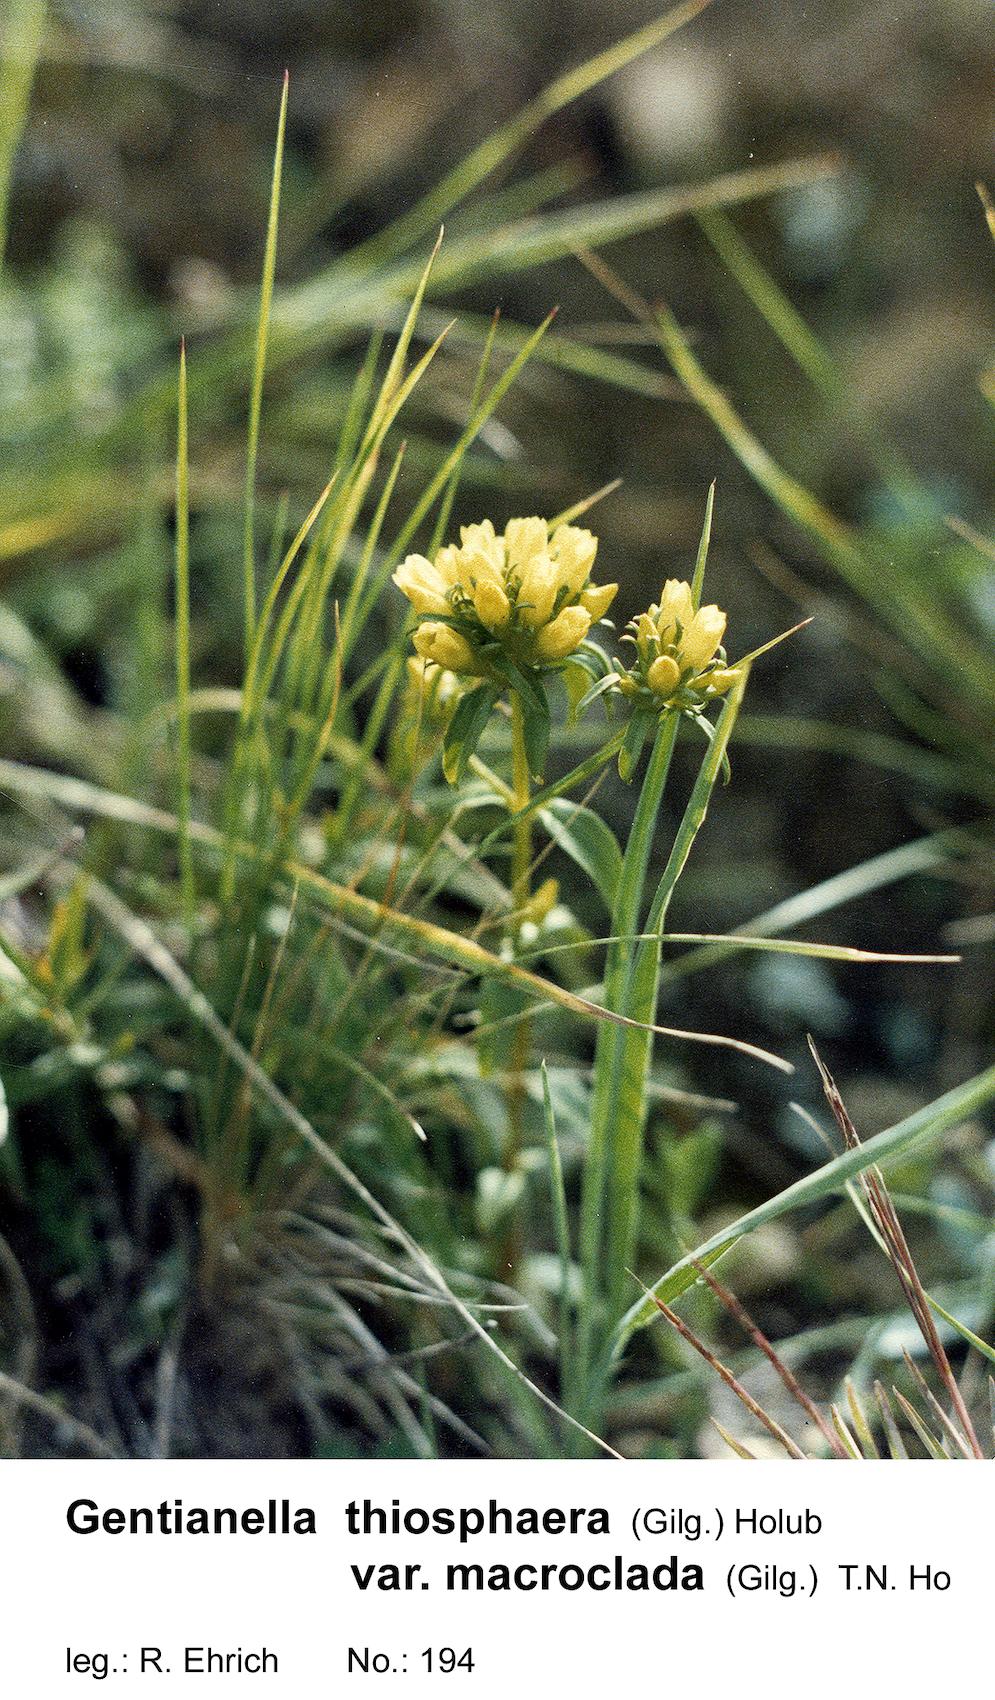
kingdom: Plantae
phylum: Tracheophyta
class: Magnoliopsida
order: Gentianales
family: Gentianaceae
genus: Gentianella
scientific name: Gentianella thiosphaera
